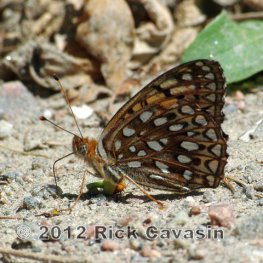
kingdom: Animalia
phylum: Arthropoda
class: Insecta
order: Lepidoptera
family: Nymphalidae
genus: Speyeria
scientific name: Speyeria atlantis
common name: Atlantis Fritillary
